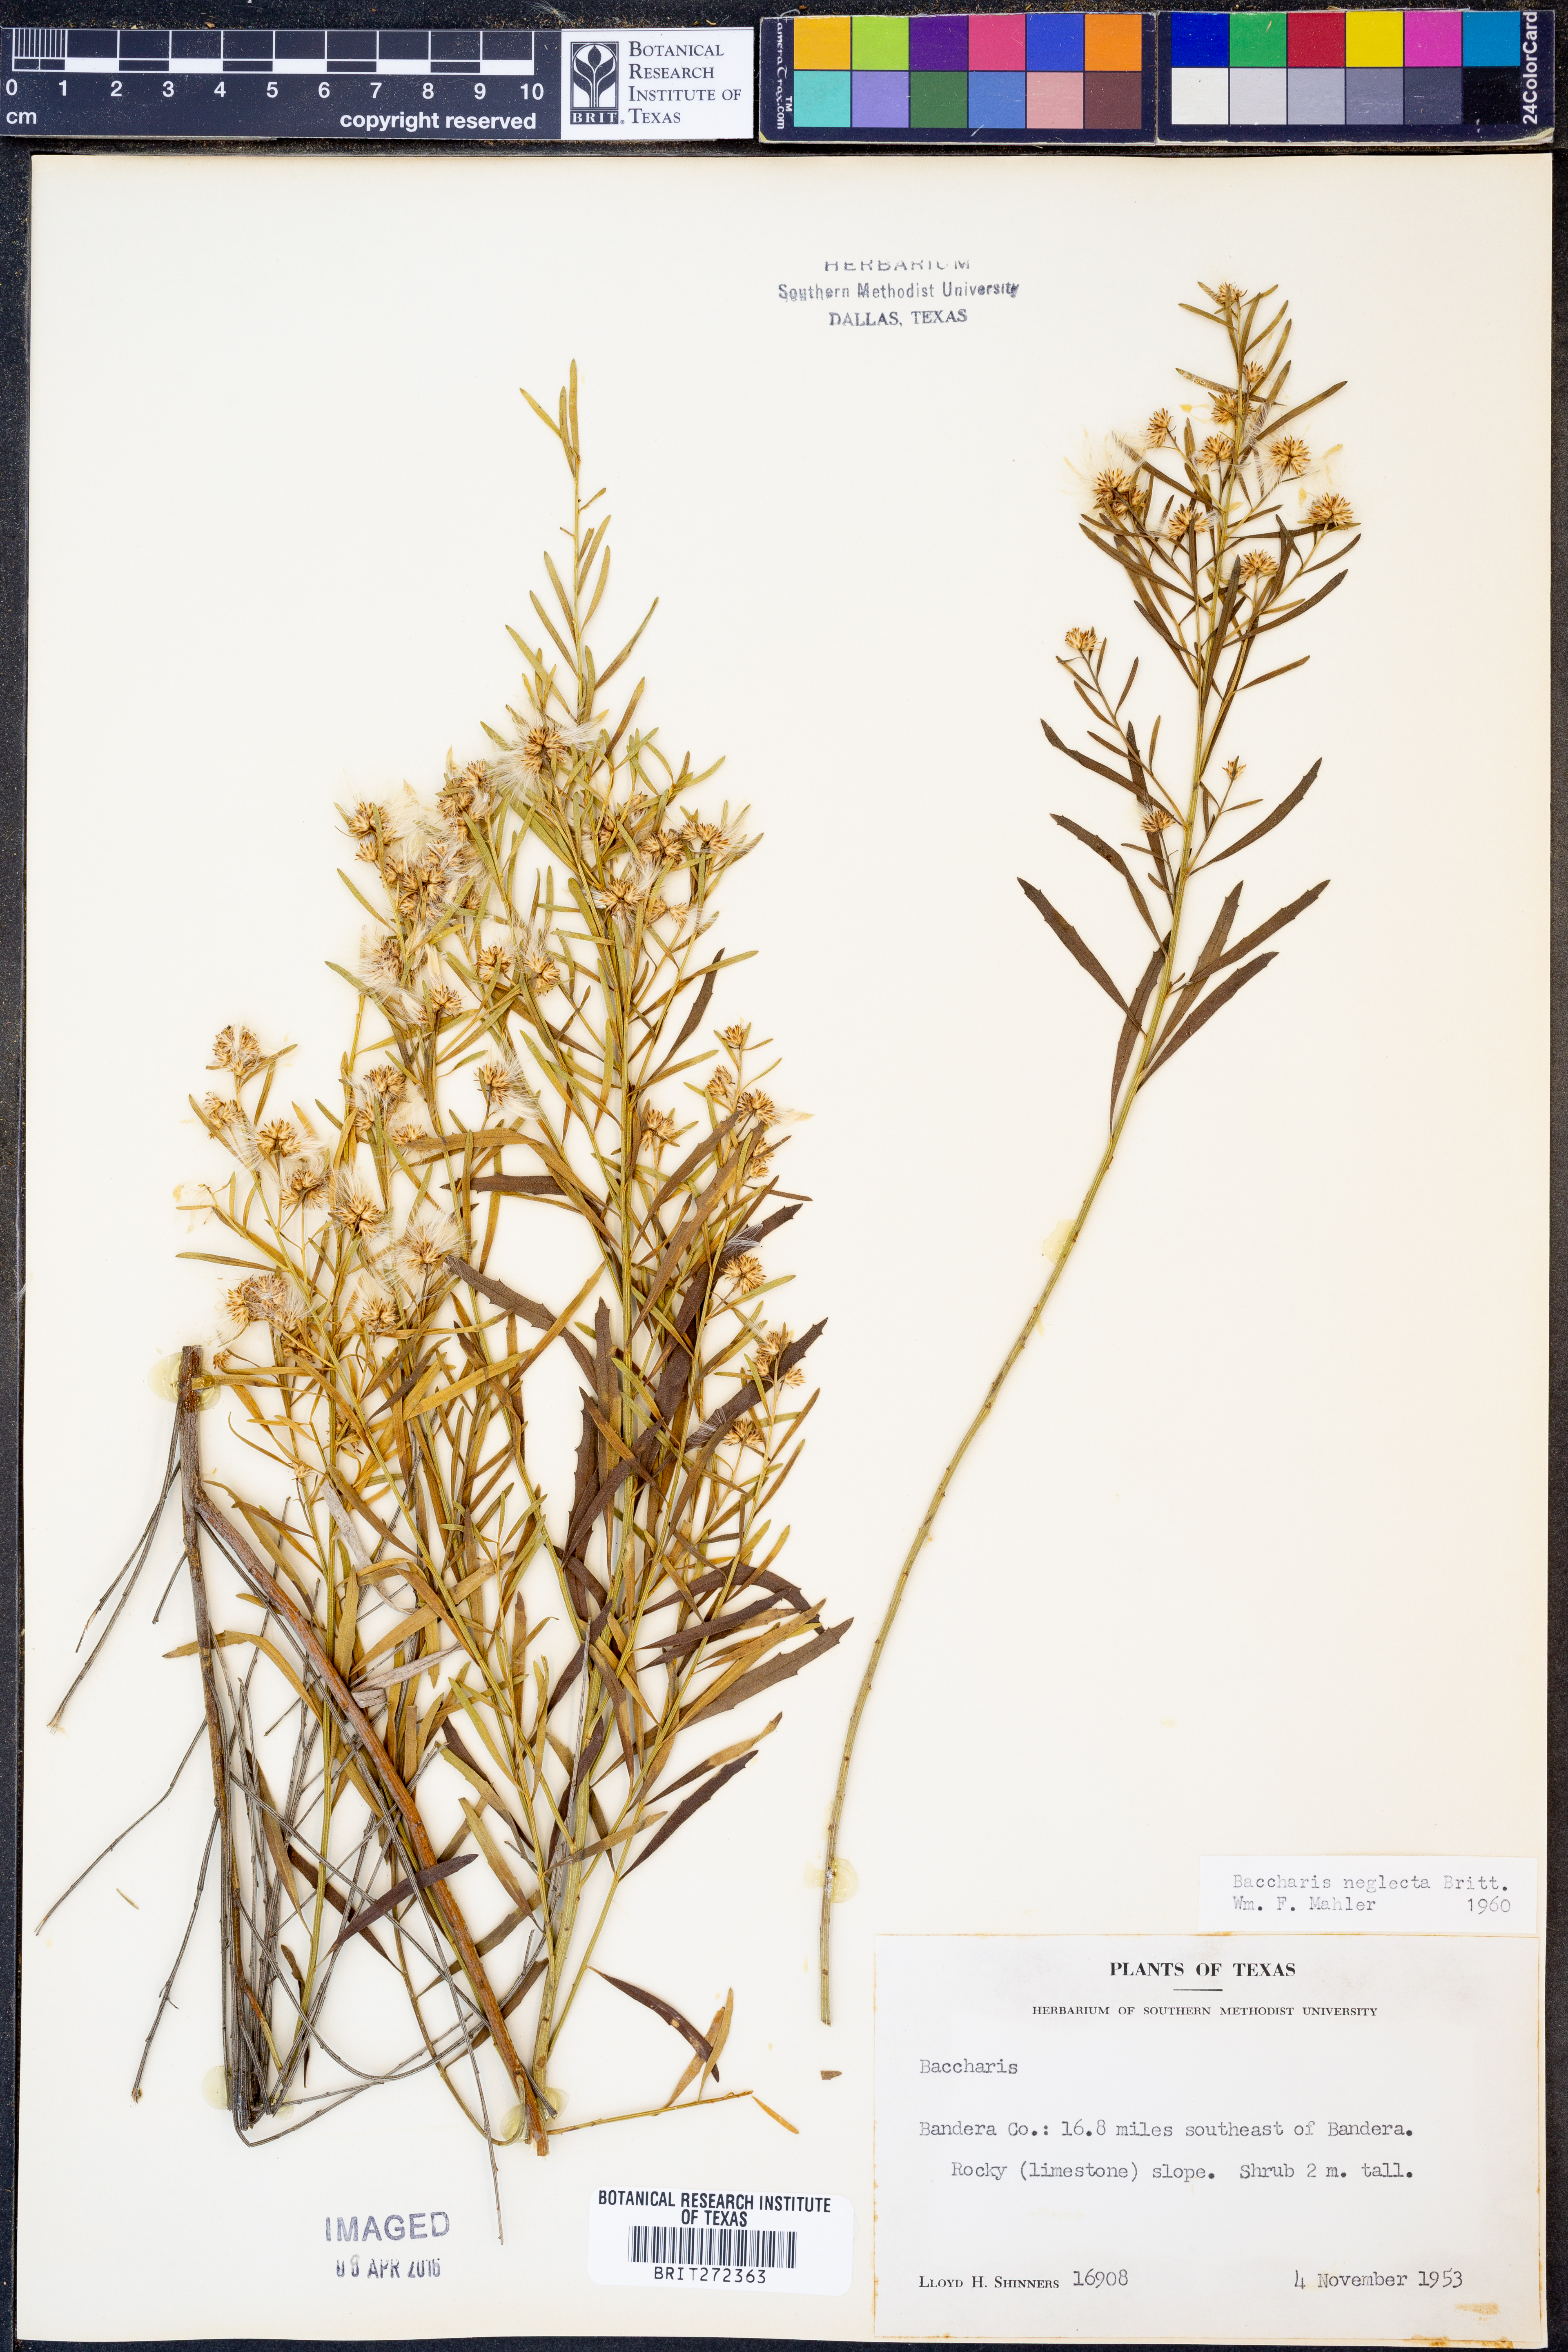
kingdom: Plantae
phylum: Tracheophyta
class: Magnoliopsida
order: Asterales
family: Asteraceae
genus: Baccharis
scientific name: Baccharis neglecta
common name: Roosevelt-weed
